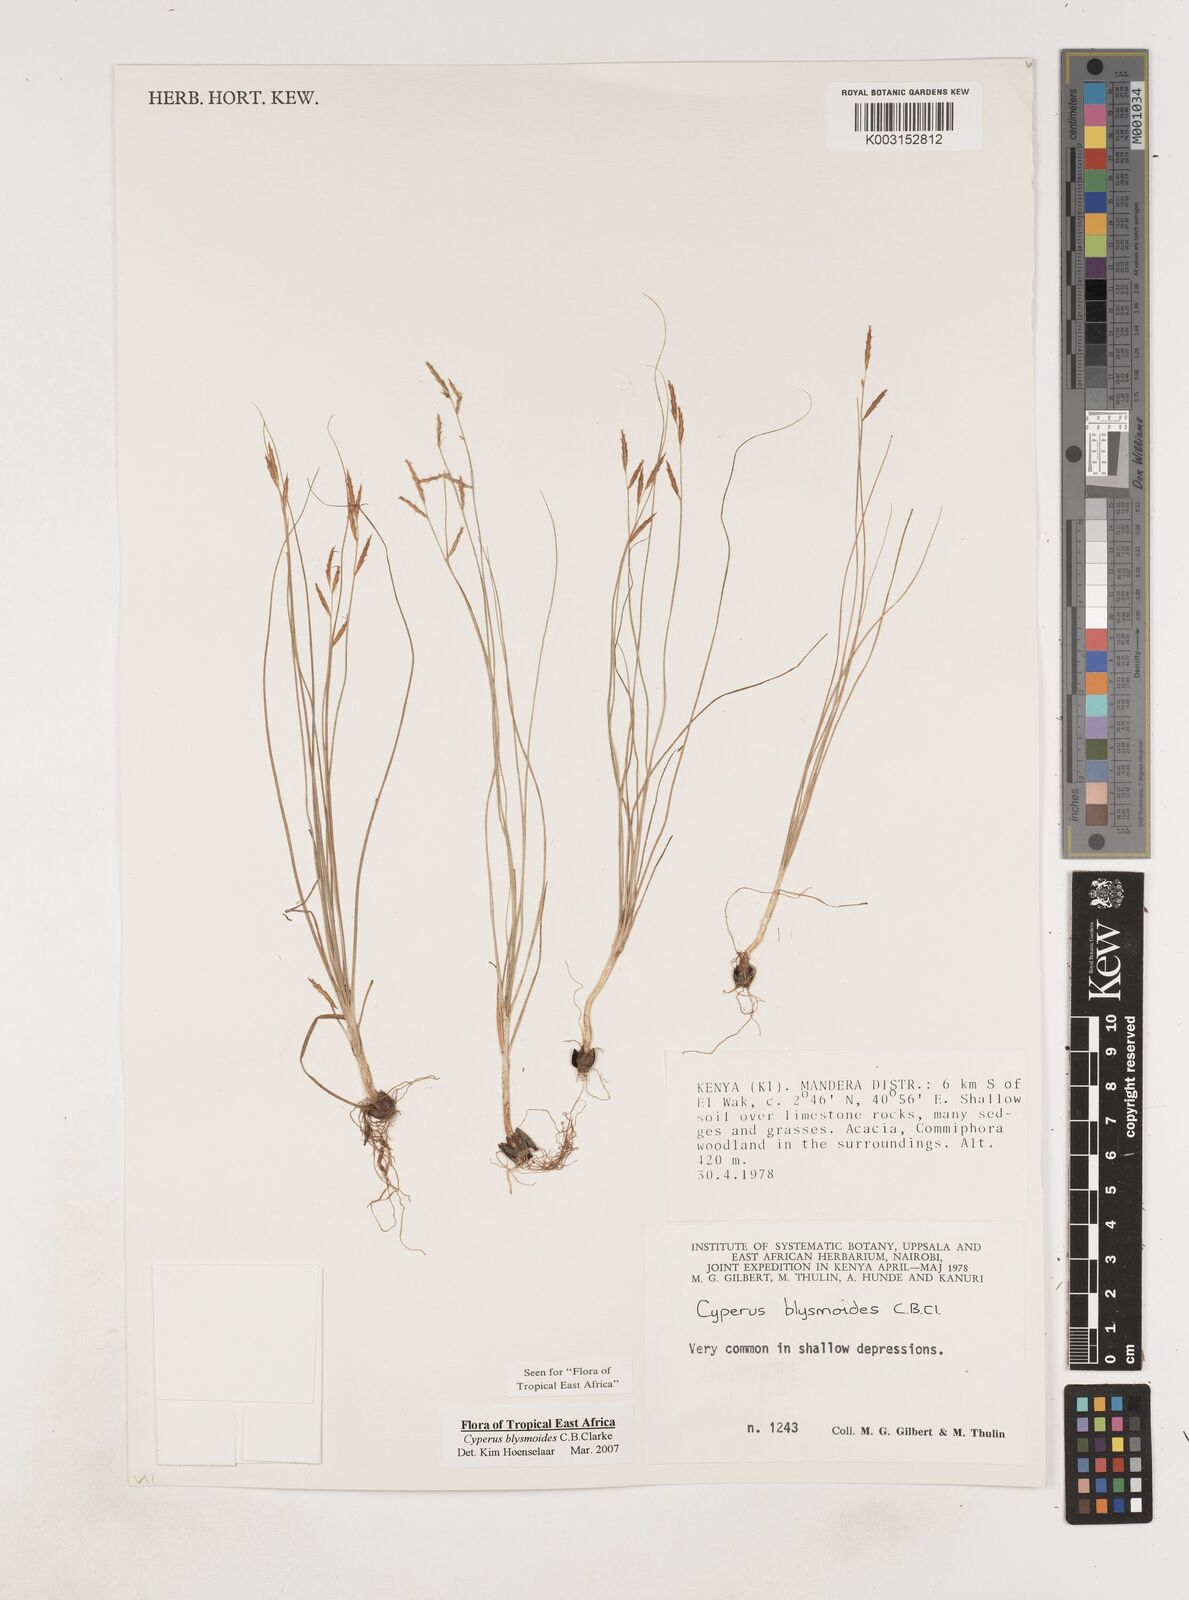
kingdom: Plantae
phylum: Tracheophyta
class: Liliopsida
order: Poales
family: Cyperaceae
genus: Cyperus
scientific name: Cyperus blysmoides
